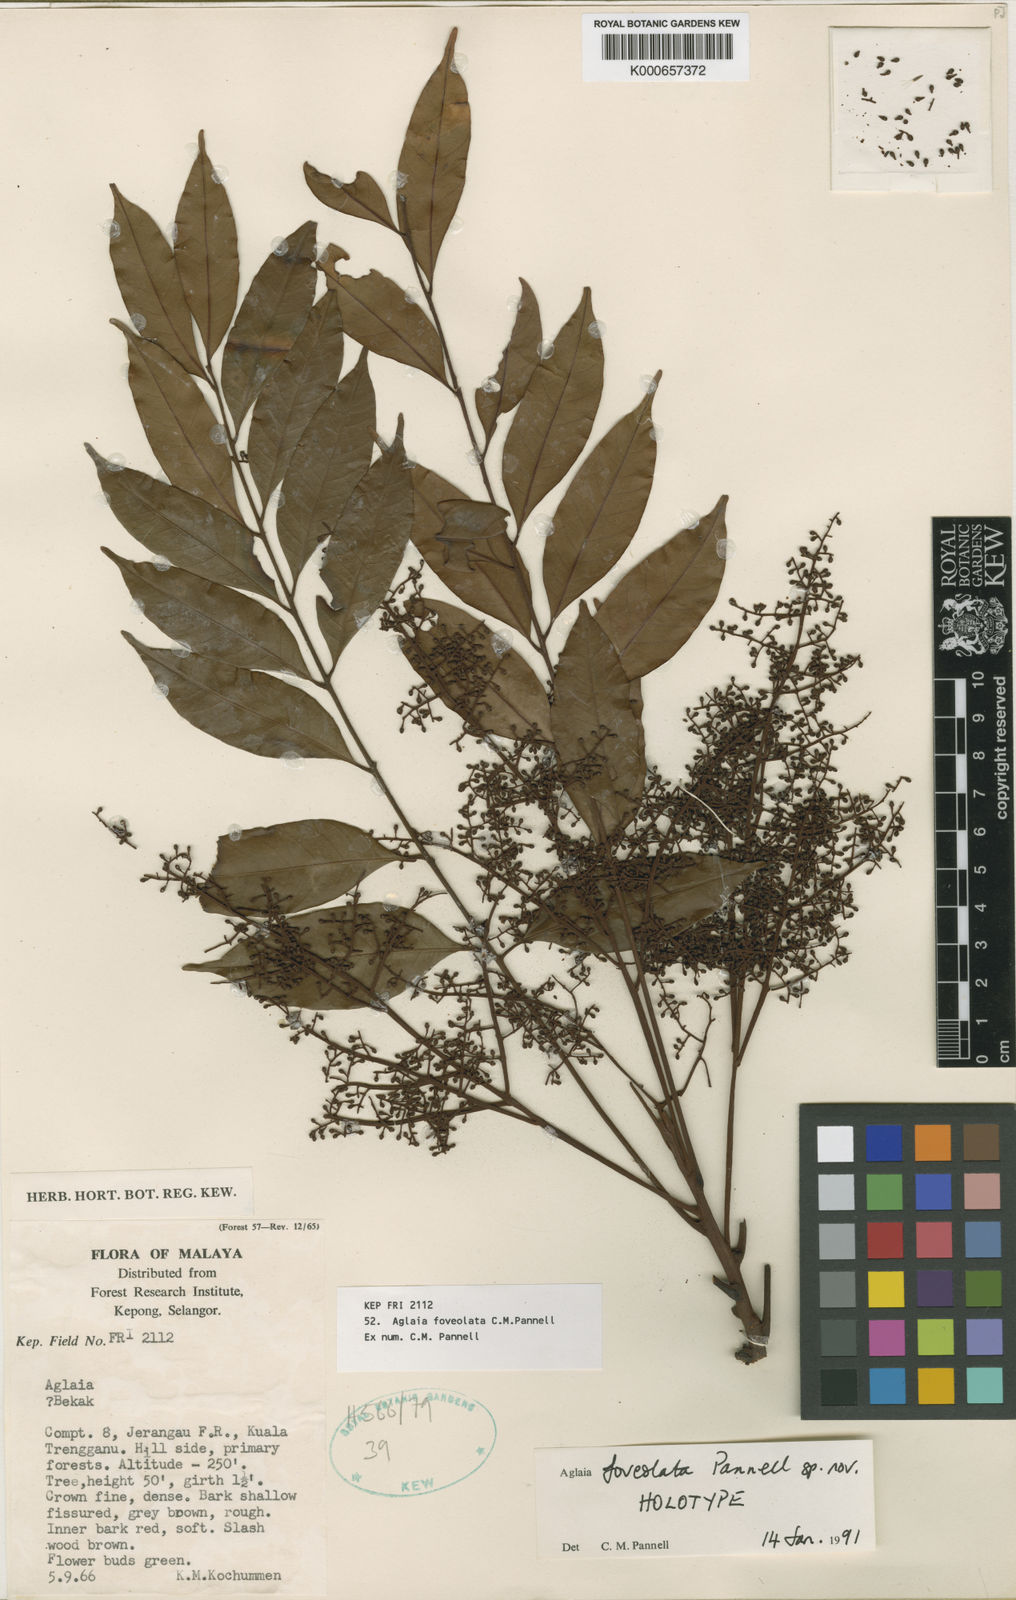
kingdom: Plantae
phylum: Tracheophyta
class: Magnoliopsida
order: Sapindales
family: Meliaceae
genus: Aglaia
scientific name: Aglaia foveolata
